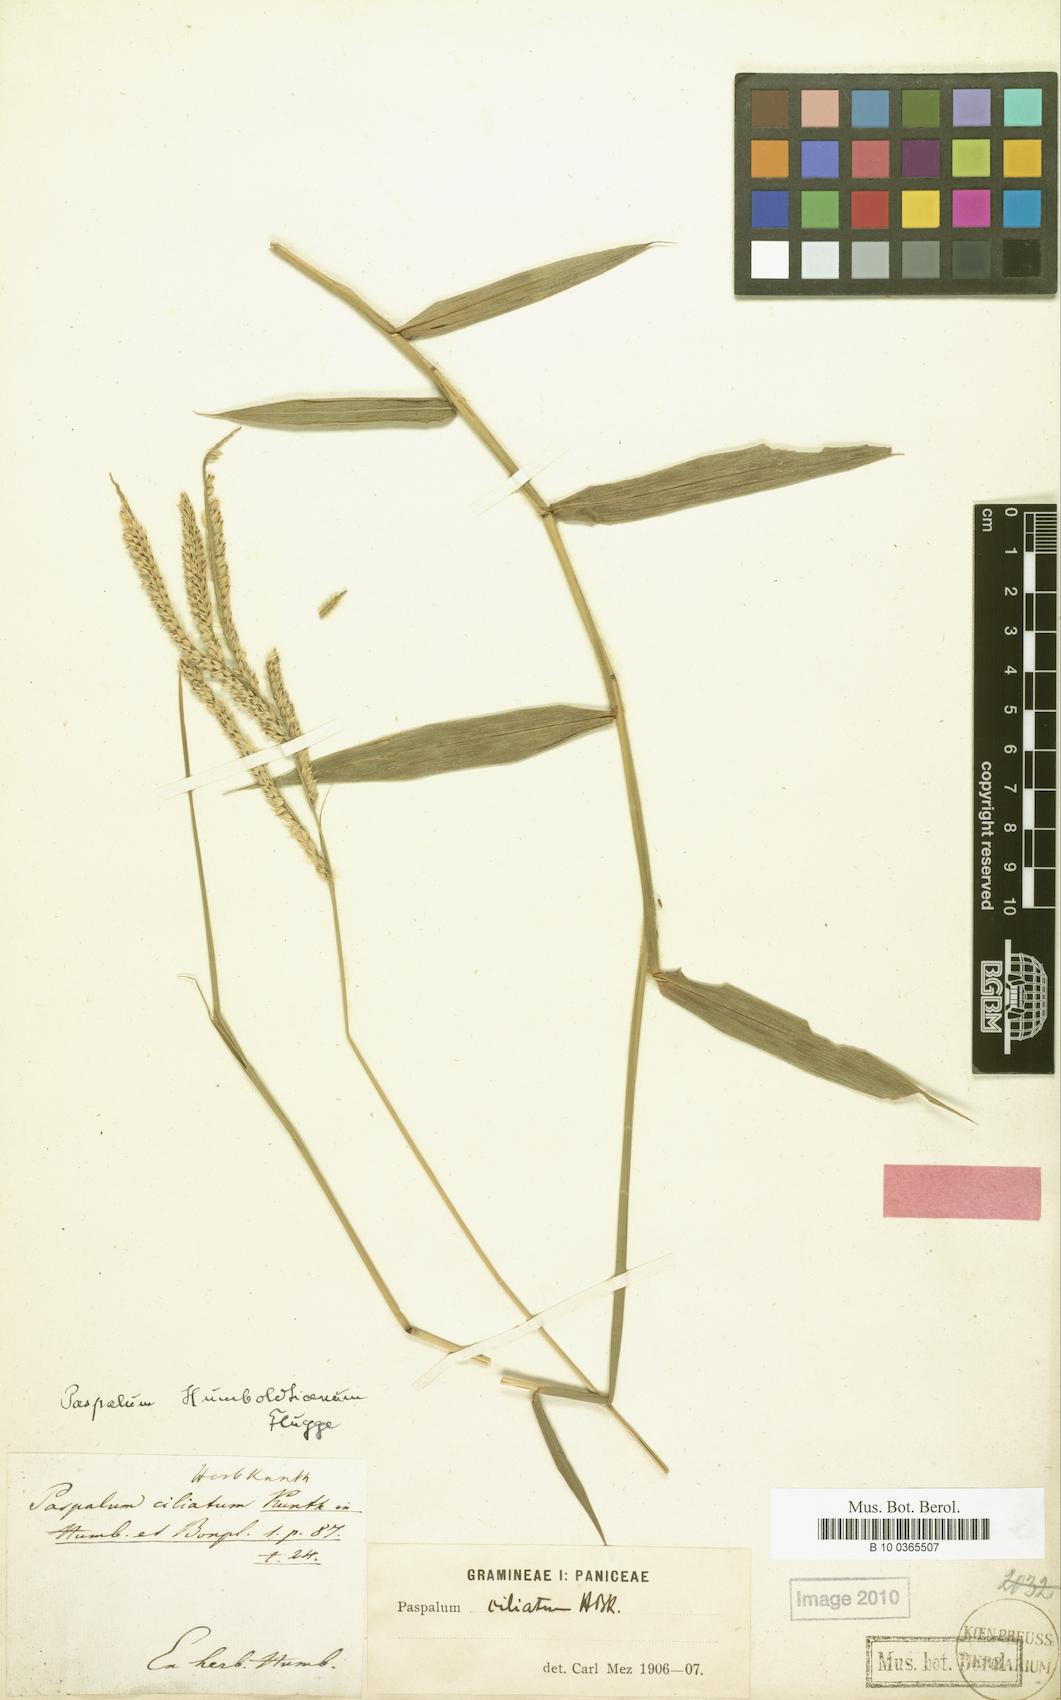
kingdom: Plantae
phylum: Tracheophyta
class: Liliopsida
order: Poales
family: Poaceae
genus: Paspalum
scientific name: Paspalum humboldtianum
